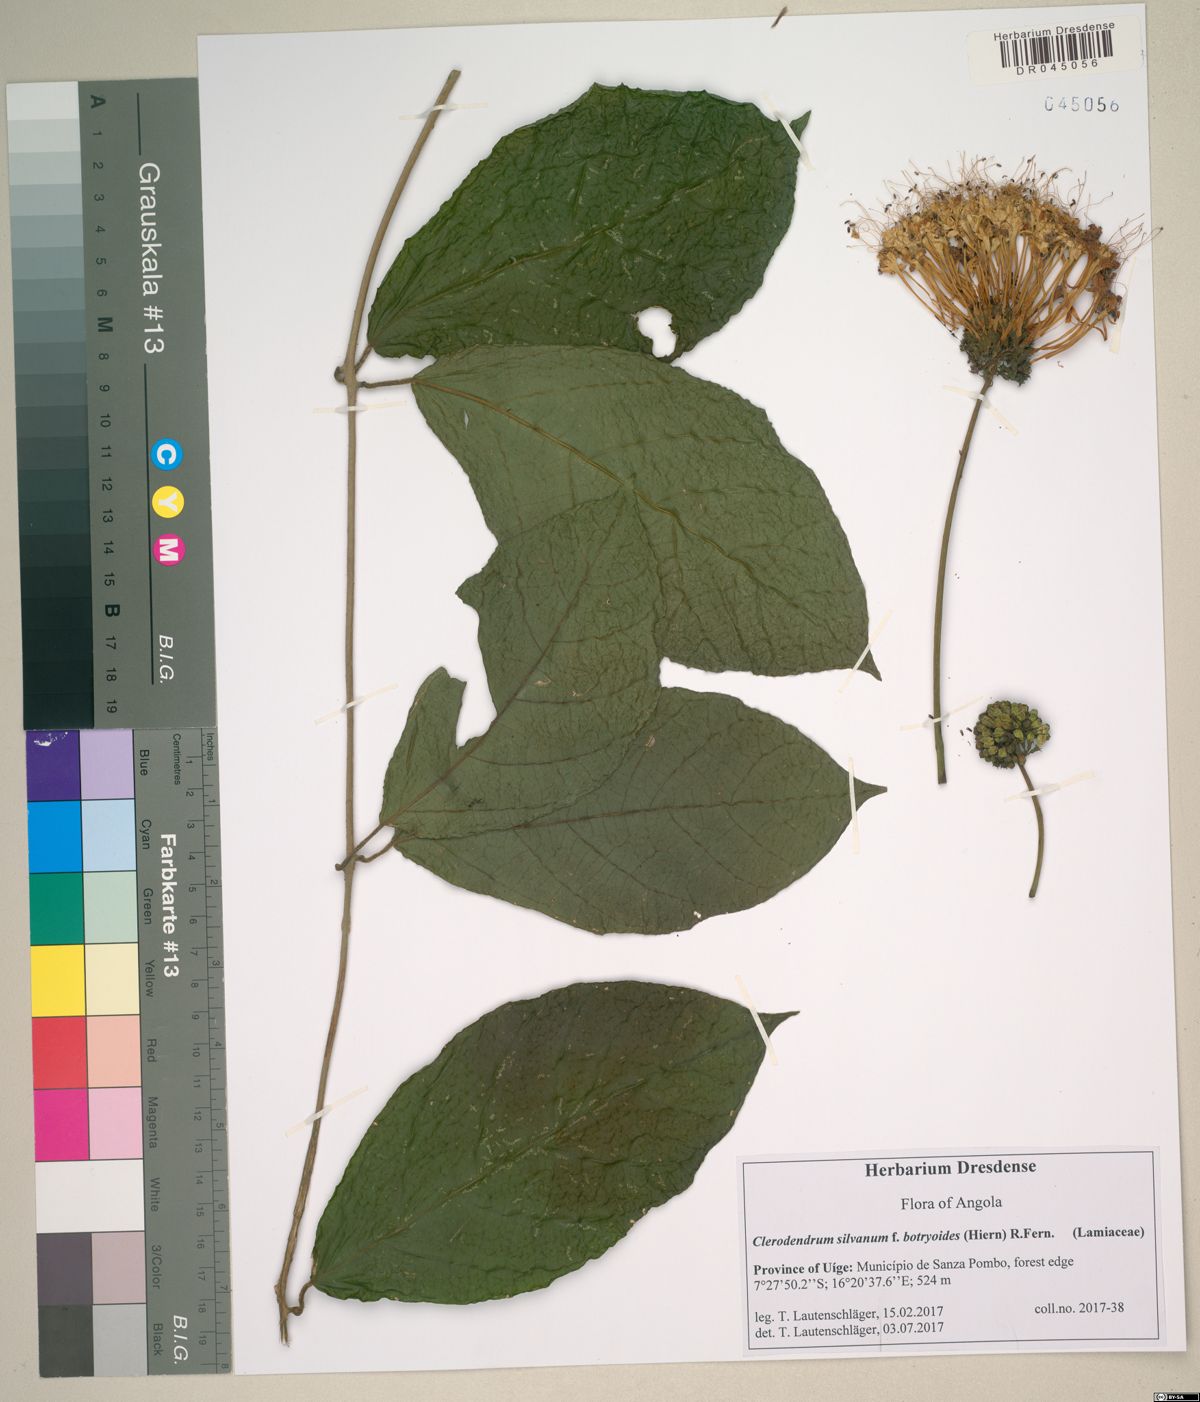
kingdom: Plantae
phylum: Tracheophyta
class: Magnoliopsida
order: Lamiales
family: Lamiaceae
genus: Clerodendrum
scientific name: Clerodendrum schweinfurthii
